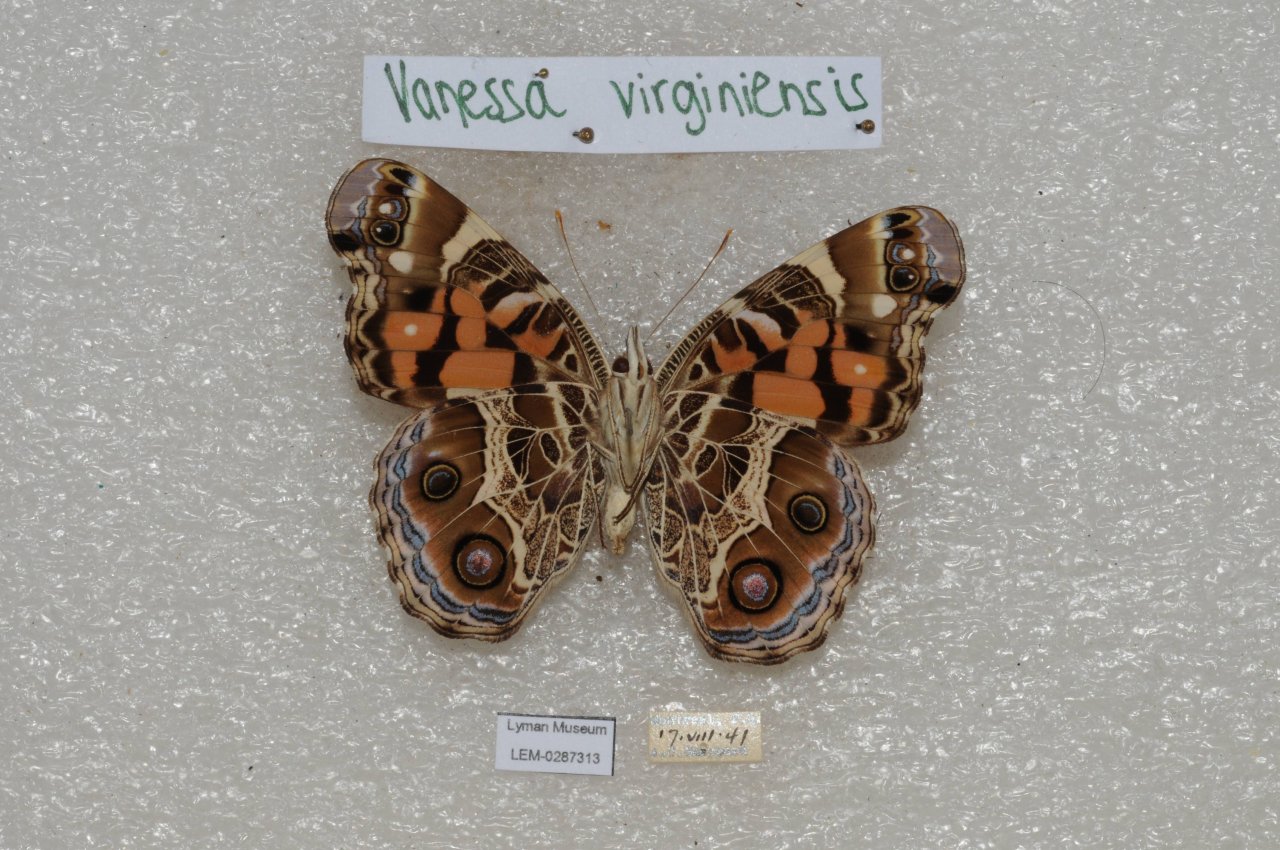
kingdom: Animalia
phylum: Arthropoda
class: Insecta
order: Lepidoptera
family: Nymphalidae
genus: Vanessa
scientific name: Vanessa virginiensis
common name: American Lady
